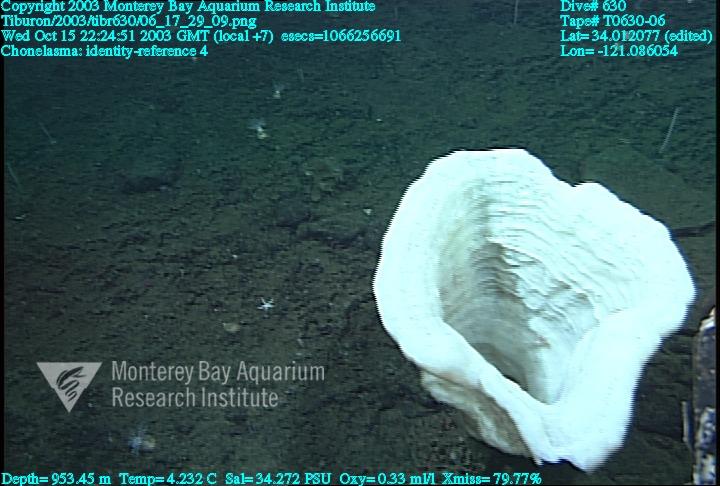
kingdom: Animalia
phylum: Porifera
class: Hexactinellida
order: Sceptrulophora
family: Euretidae
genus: Chonelasma
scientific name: Chonelasma
